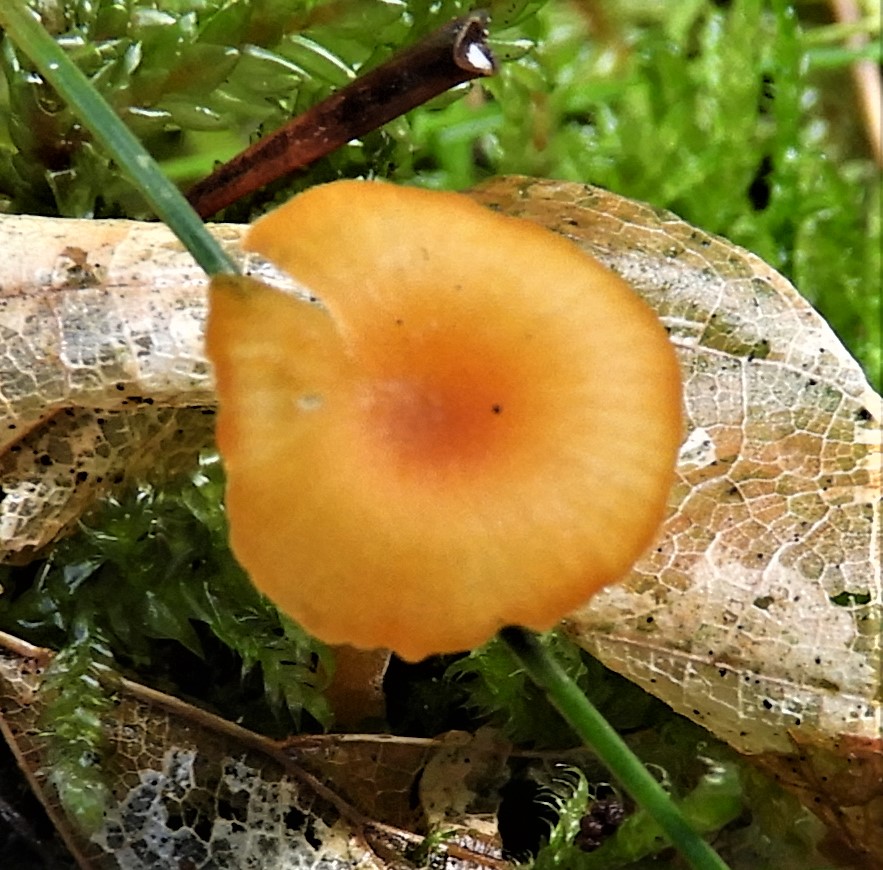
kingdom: Fungi
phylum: Basidiomycota
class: Agaricomycetes
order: Hymenochaetales
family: Rickenellaceae
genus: Rickenella
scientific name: Rickenella fibula
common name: orange mosnavlehat
